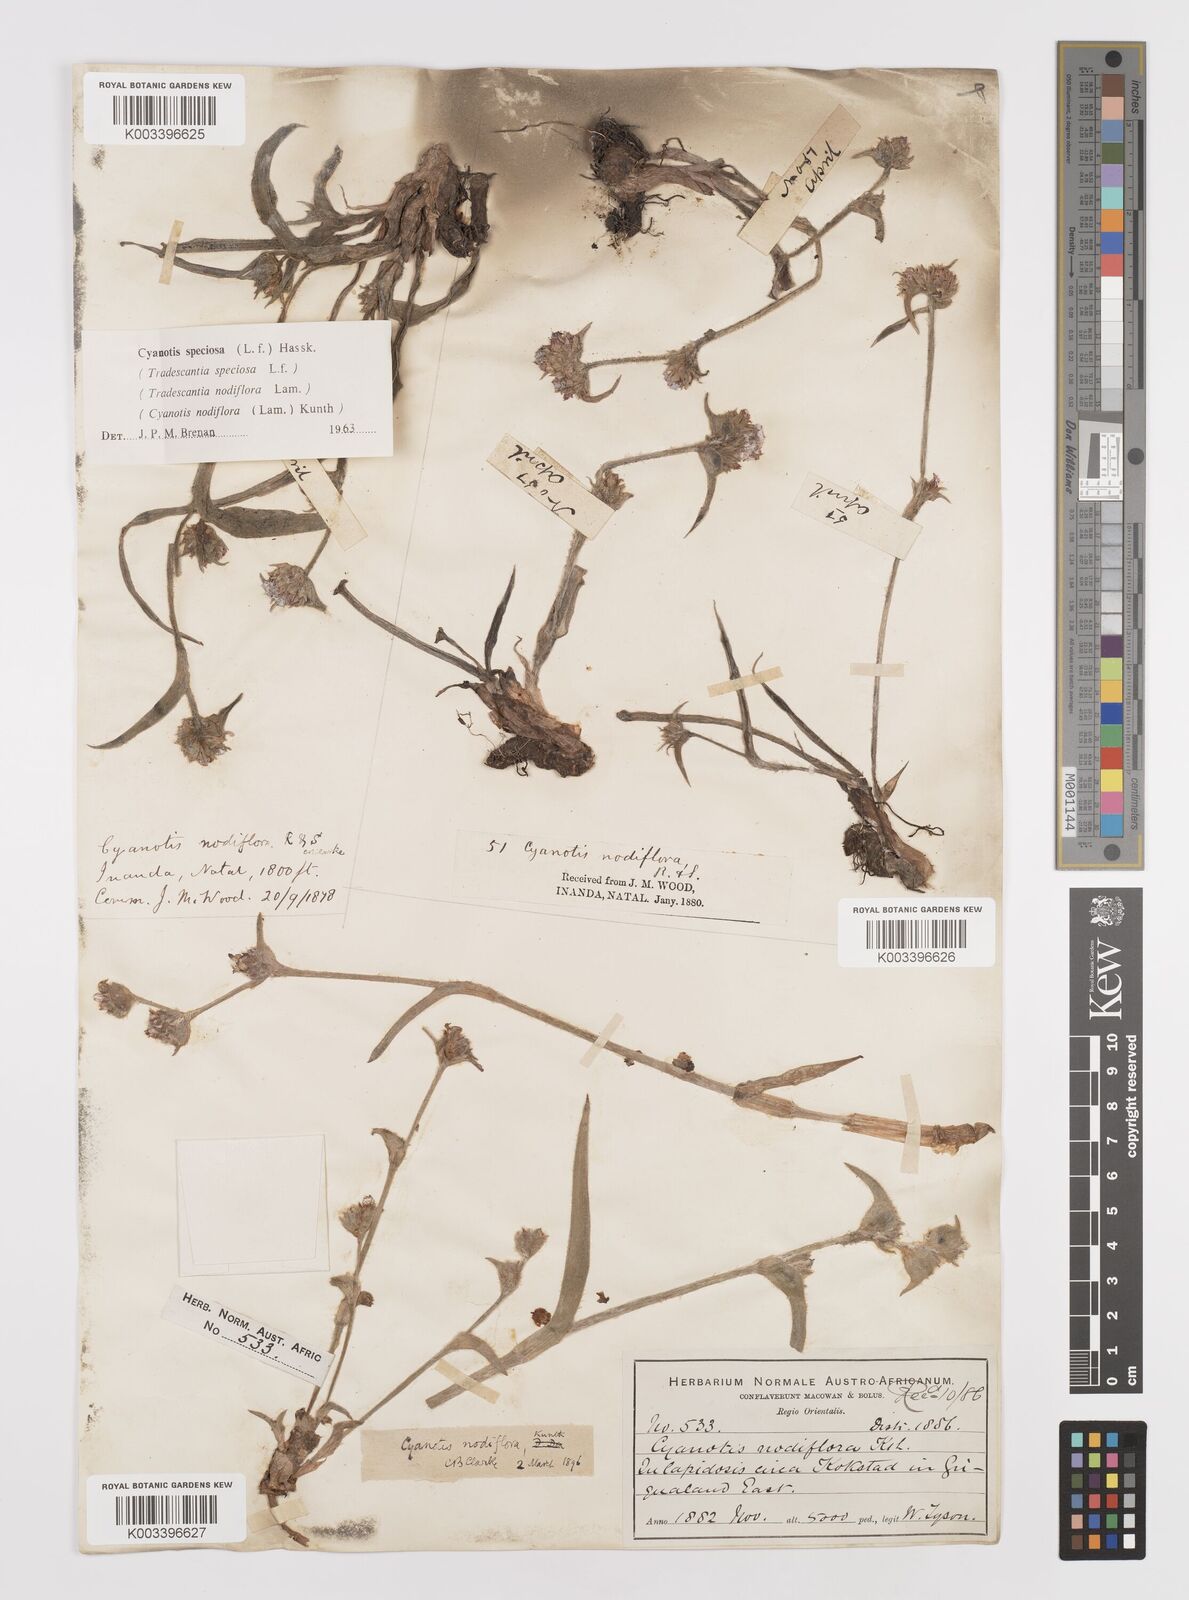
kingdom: Plantae
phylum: Tracheophyta
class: Liliopsida
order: Commelinales
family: Commelinaceae
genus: Cyanotis
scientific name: Cyanotis speciosa
